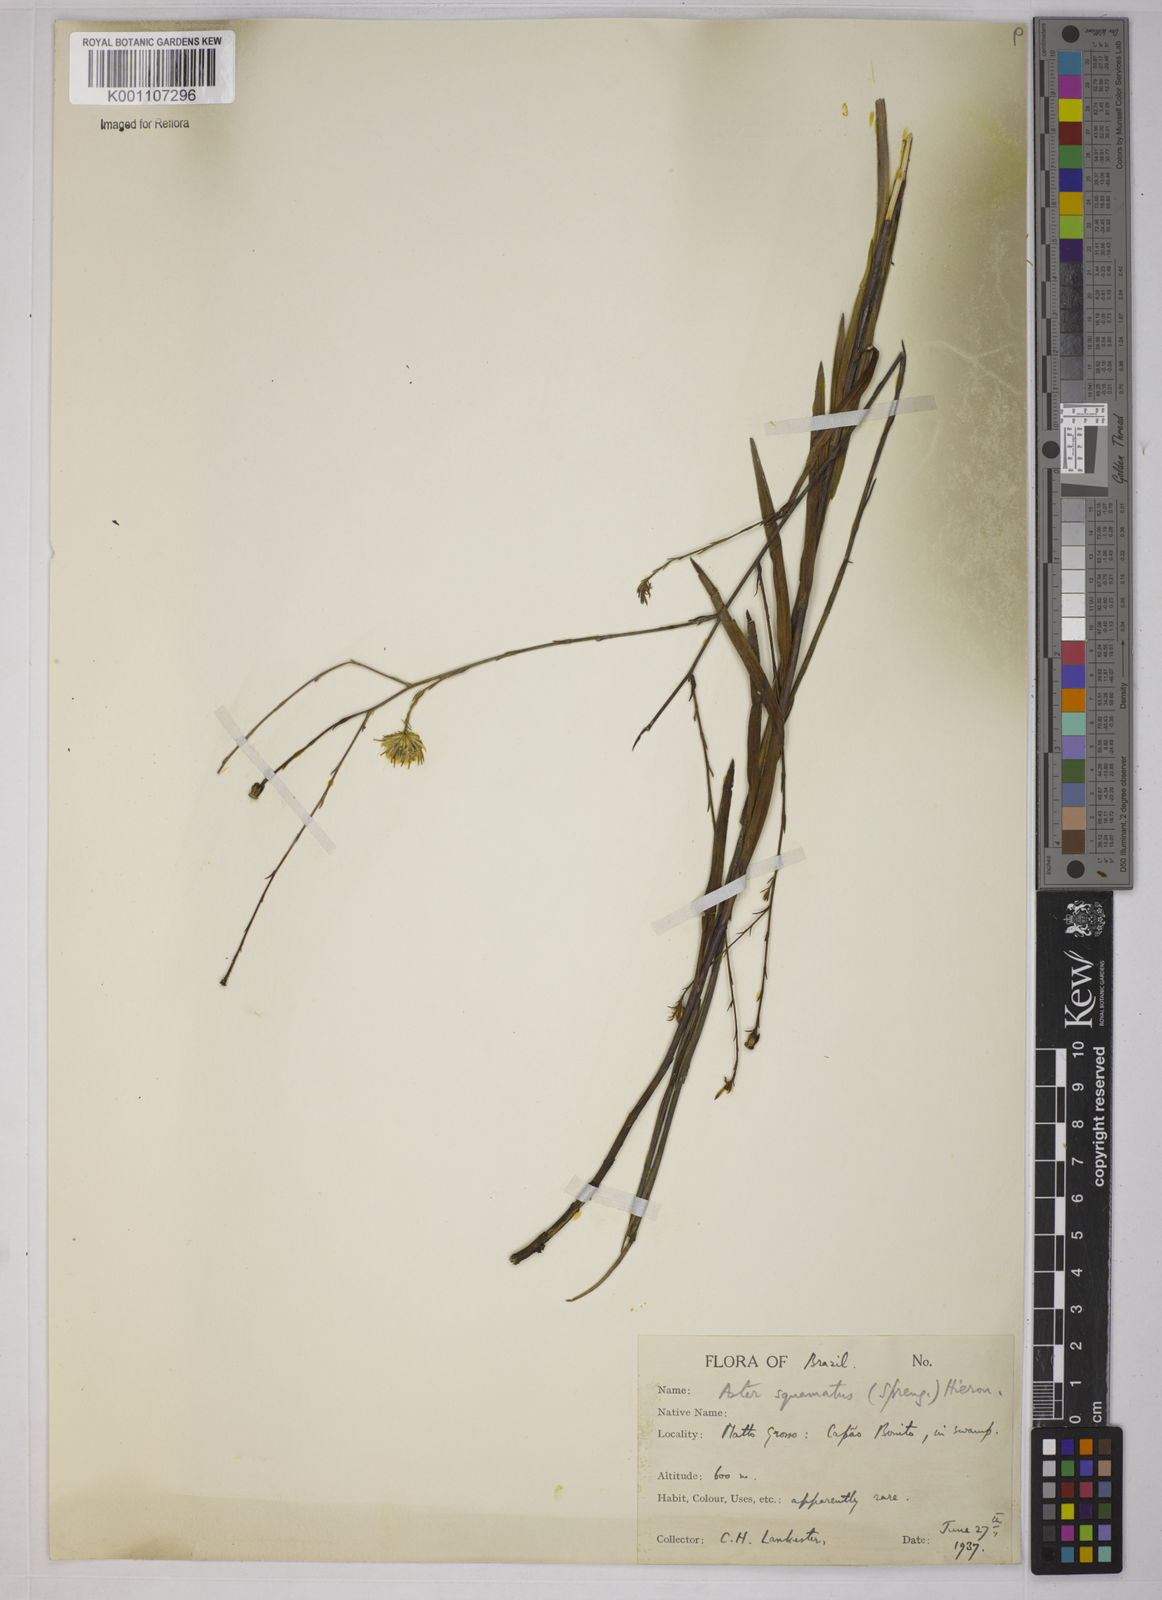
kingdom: Plantae
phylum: Tracheophyta
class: Magnoliopsida
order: Asterales
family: Asteraceae
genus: Symphyotrichum
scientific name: Symphyotrichum
